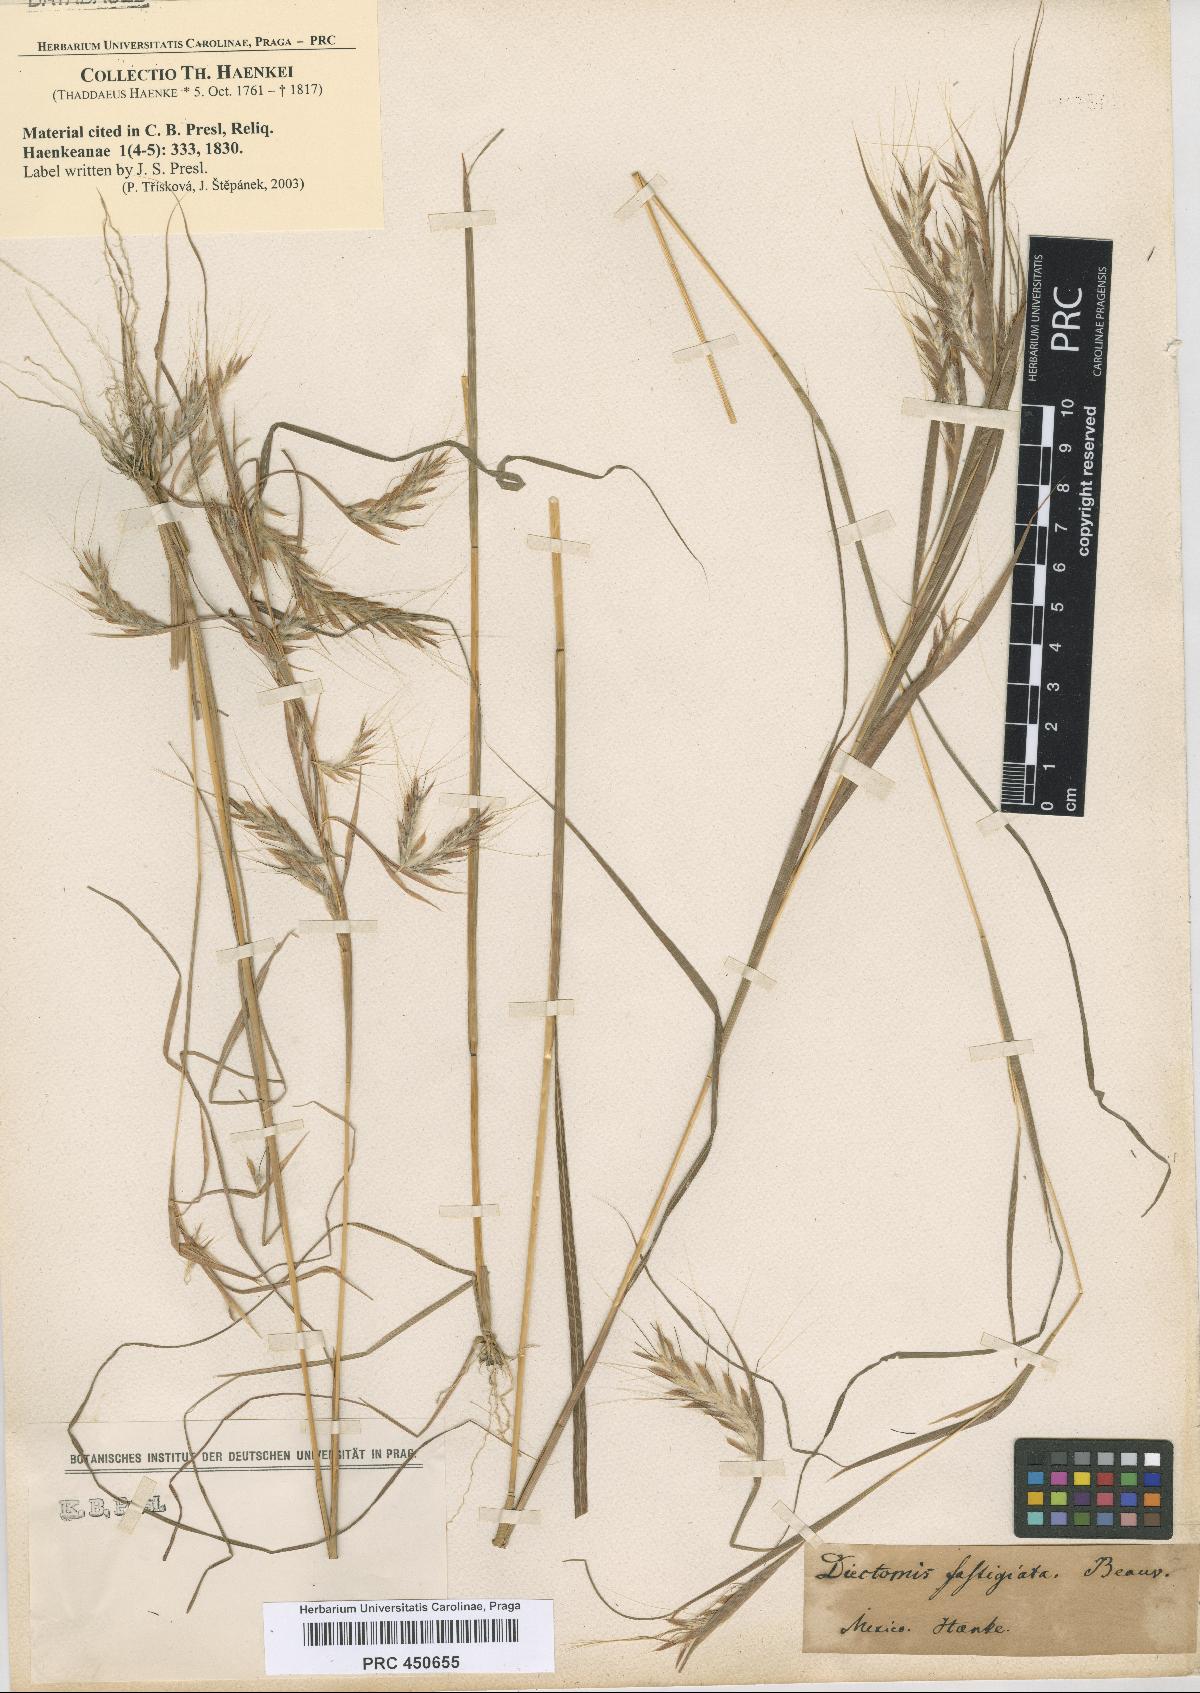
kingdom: Plantae
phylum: Tracheophyta
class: Liliopsida
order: Poales
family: Poaceae
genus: Diectomis
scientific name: Diectomis fastigiata
